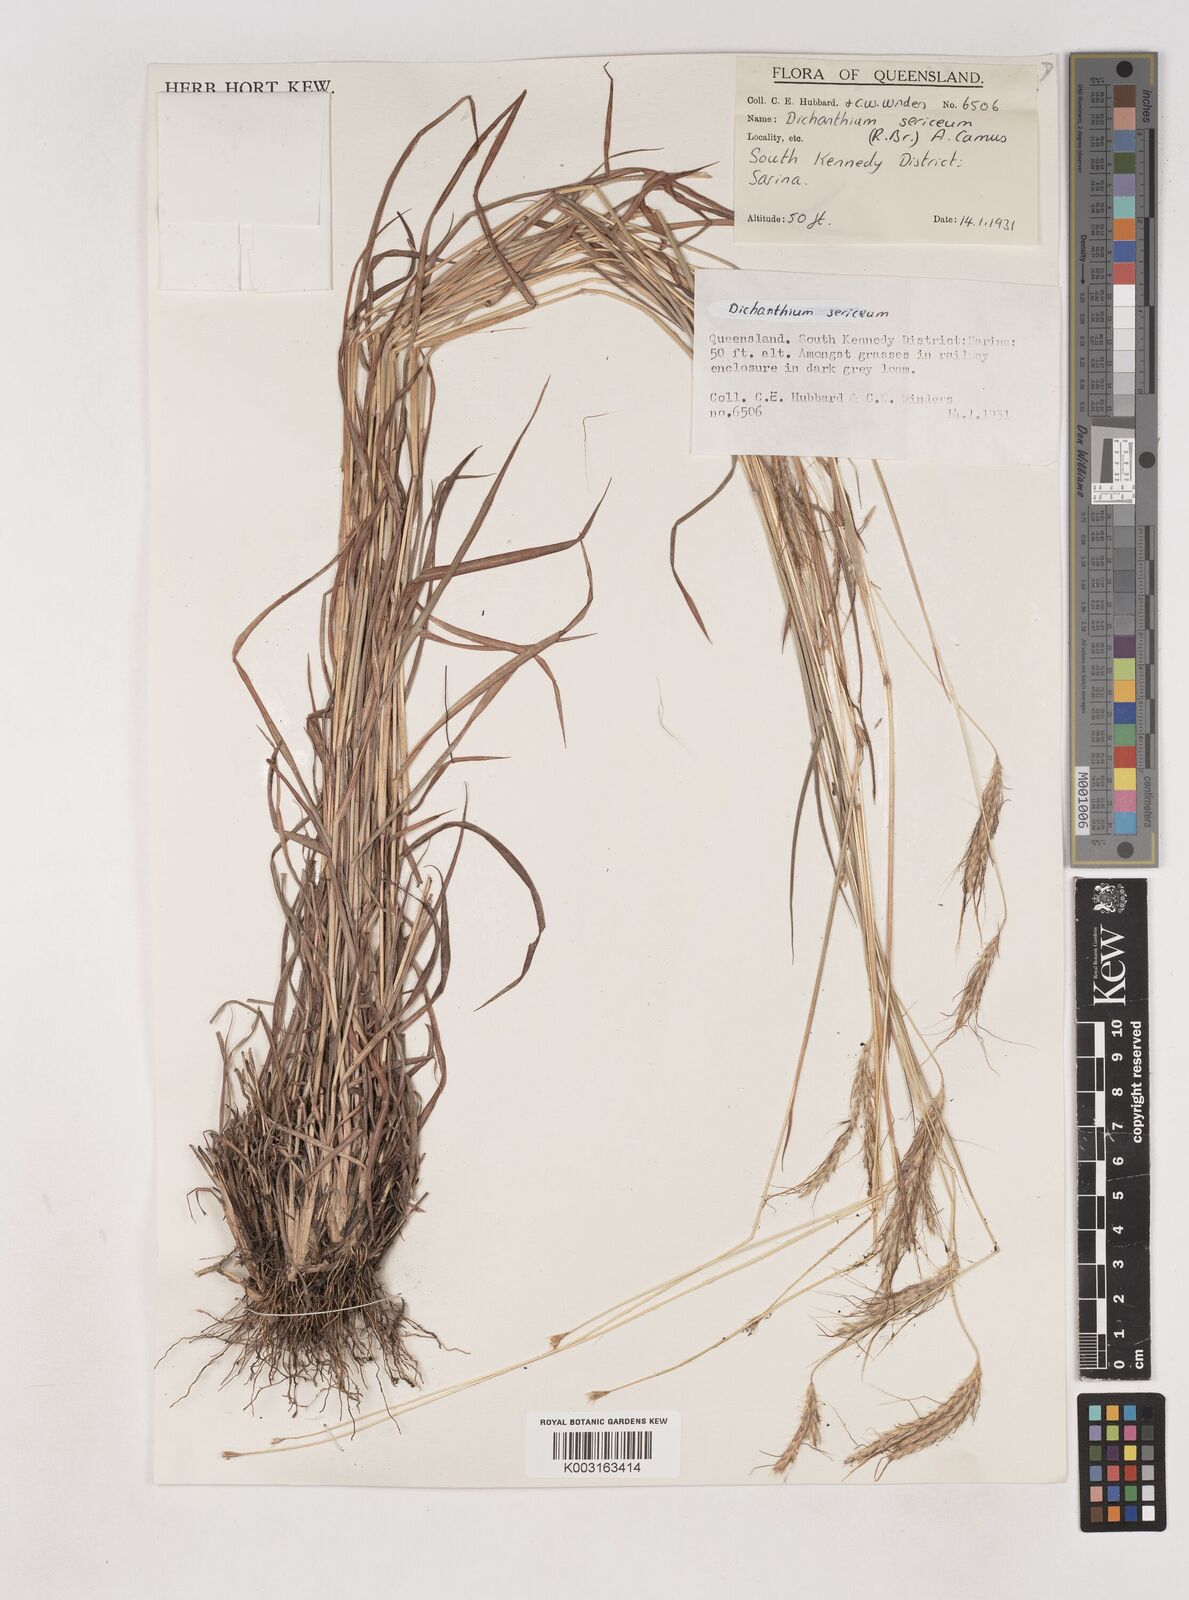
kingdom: Plantae
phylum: Tracheophyta
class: Liliopsida
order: Poales
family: Poaceae
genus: Dichanthium
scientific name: Dichanthium sericeum
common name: Silky bluestem
